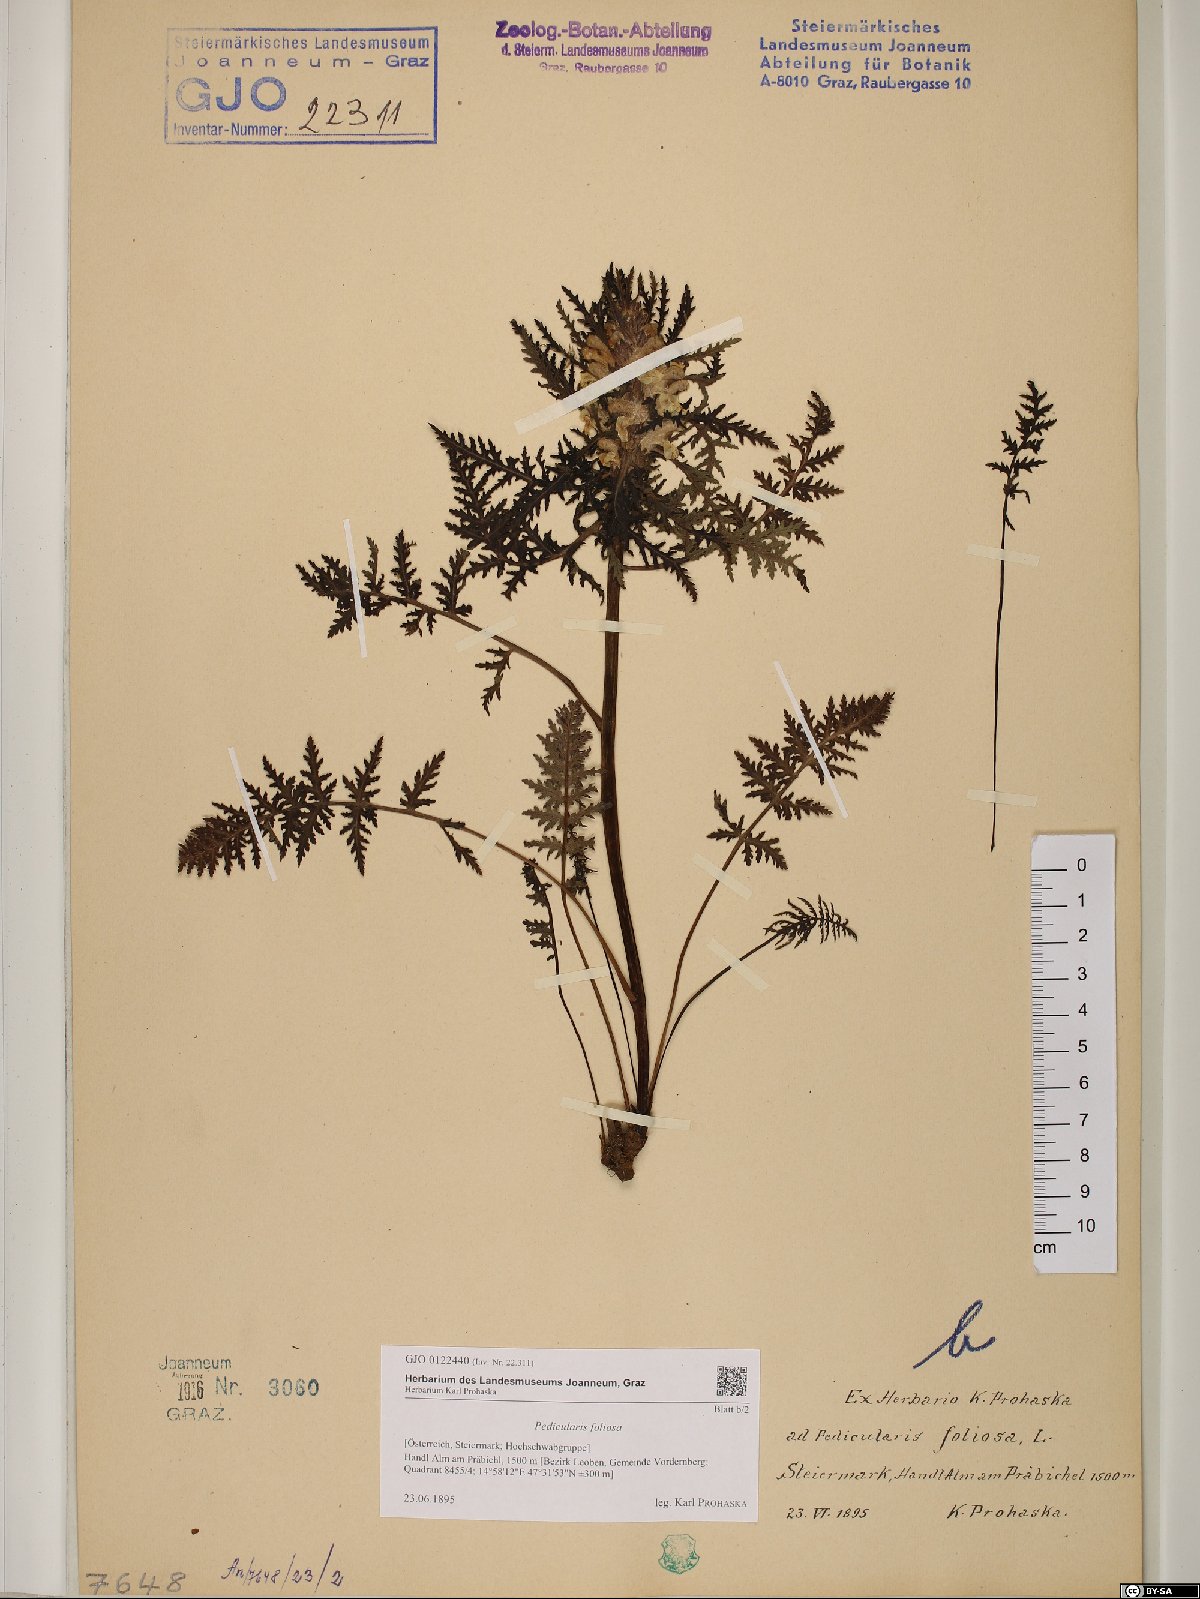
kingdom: Plantae
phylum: Tracheophyta
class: Magnoliopsida
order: Lamiales
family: Orobanchaceae
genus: Pedicularis
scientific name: Pedicularis foliosa
